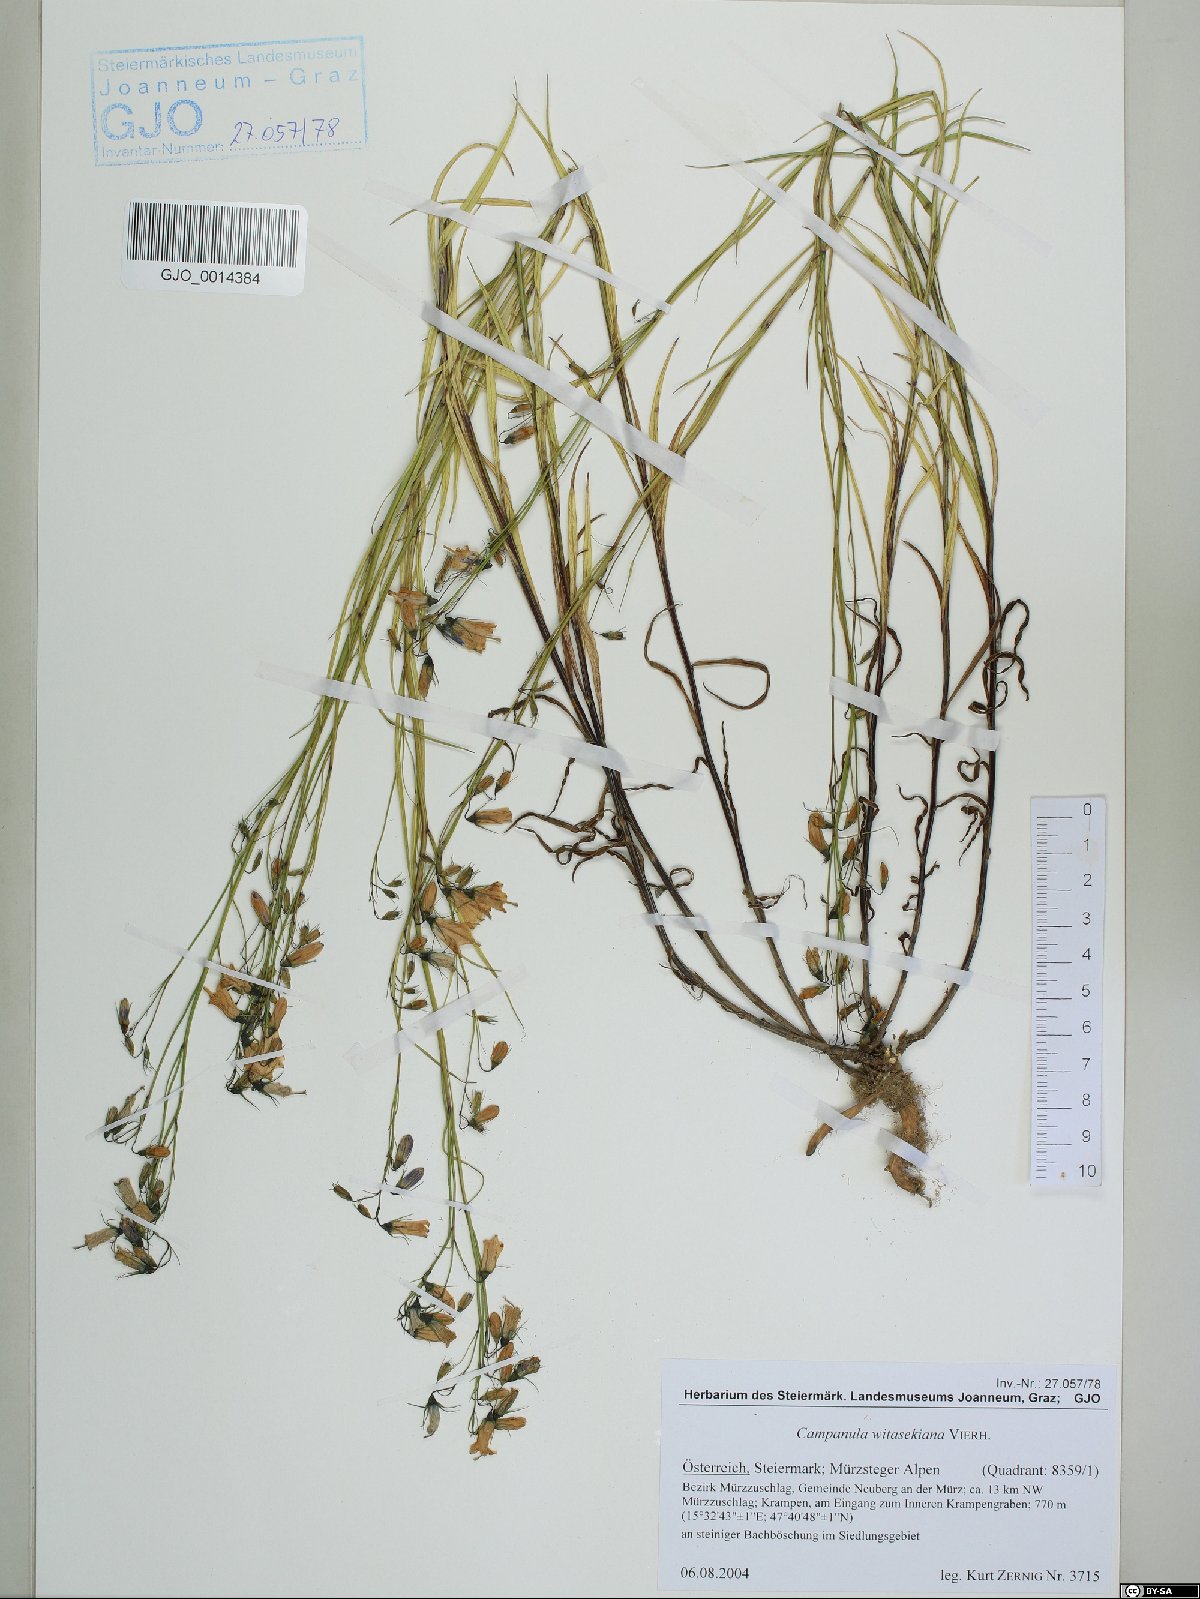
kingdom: Plantae
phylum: Tracheophyta
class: Magnoliopsida
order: Asterales
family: Campanulaceae
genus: Campanula
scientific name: Campanula witasekiana
